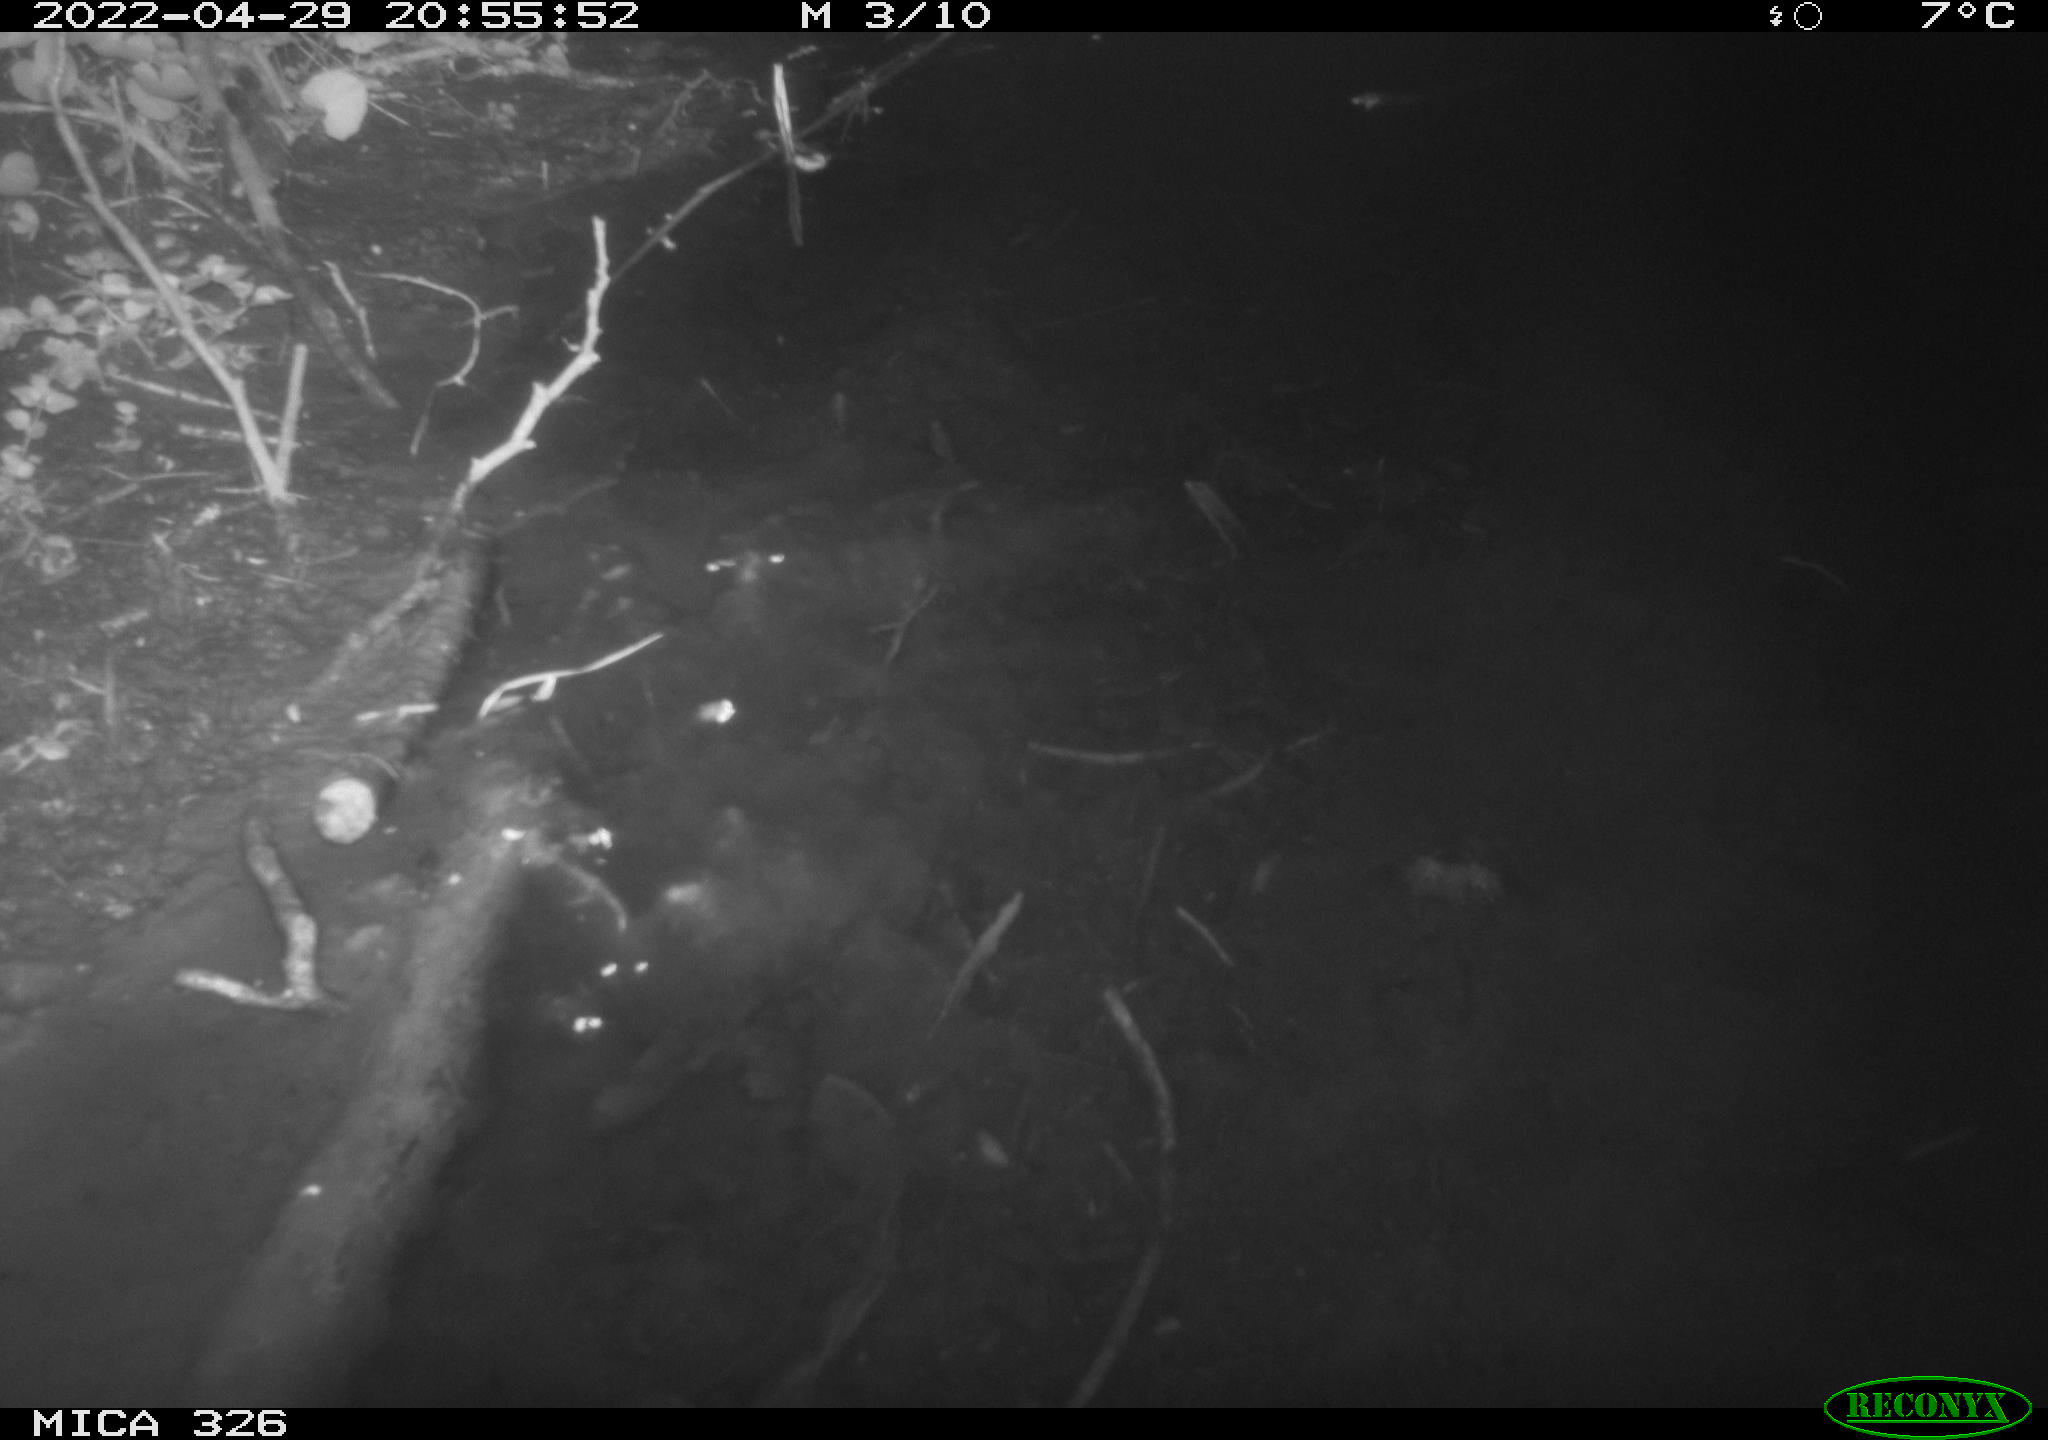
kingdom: Animalia
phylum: Chordata
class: Mammalia
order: Rodentia
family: Muridae
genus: Rattus
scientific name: Rattus norvegicus
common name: Brown rat
